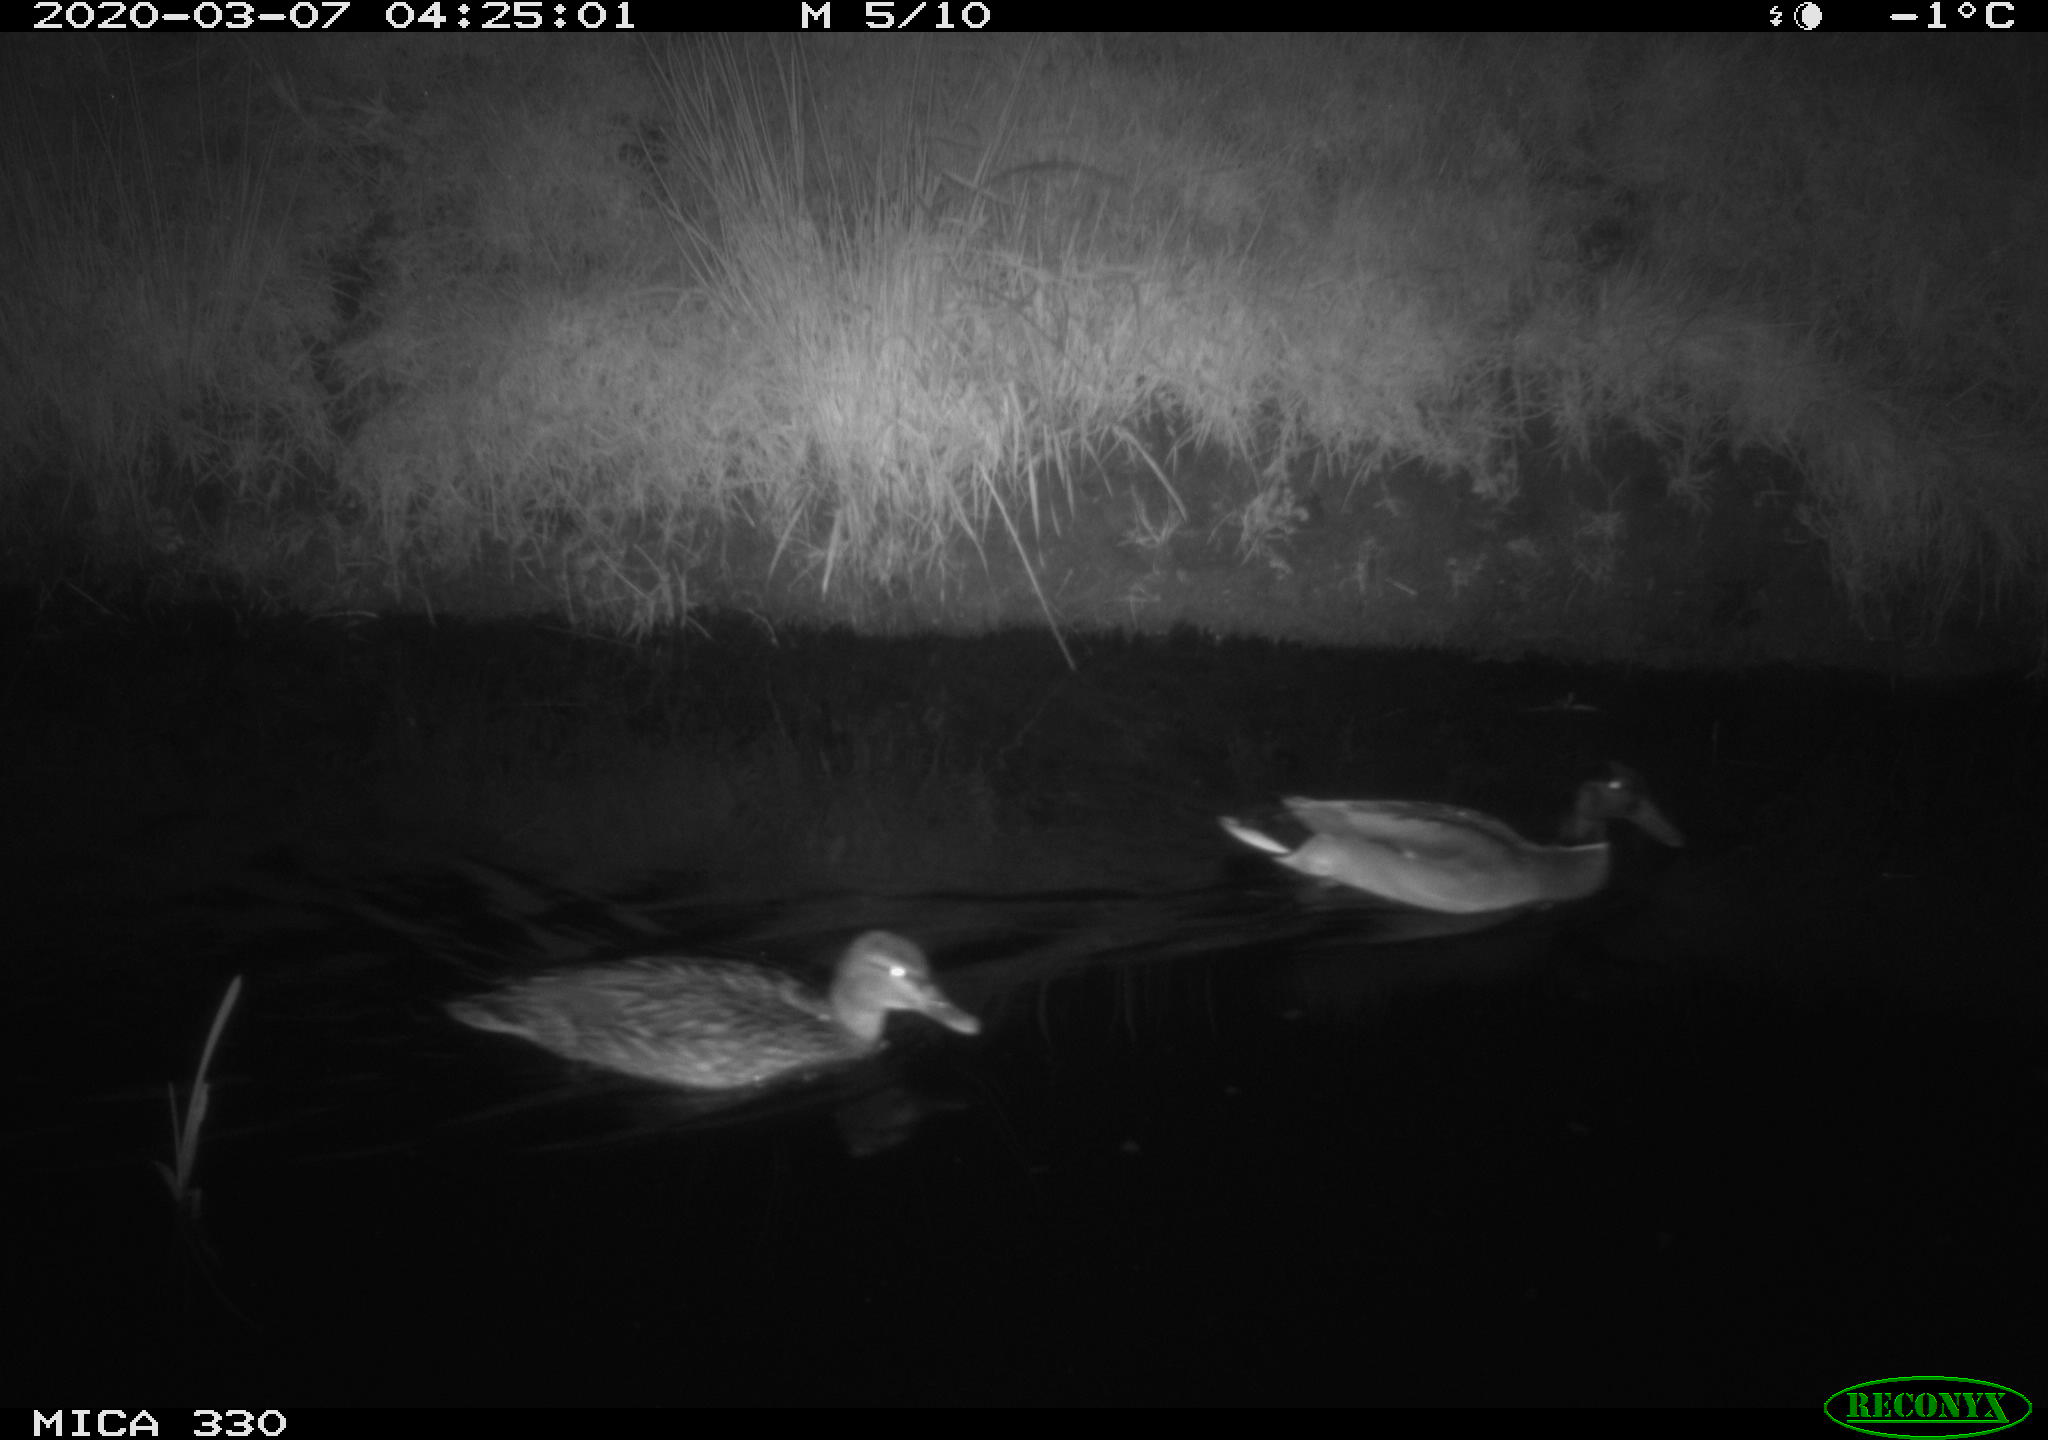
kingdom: Animalia
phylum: Chordata
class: Aves
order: Anseriformes
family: Anatidae
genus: Anas
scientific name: Anas platyrhynchos
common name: Mallard
